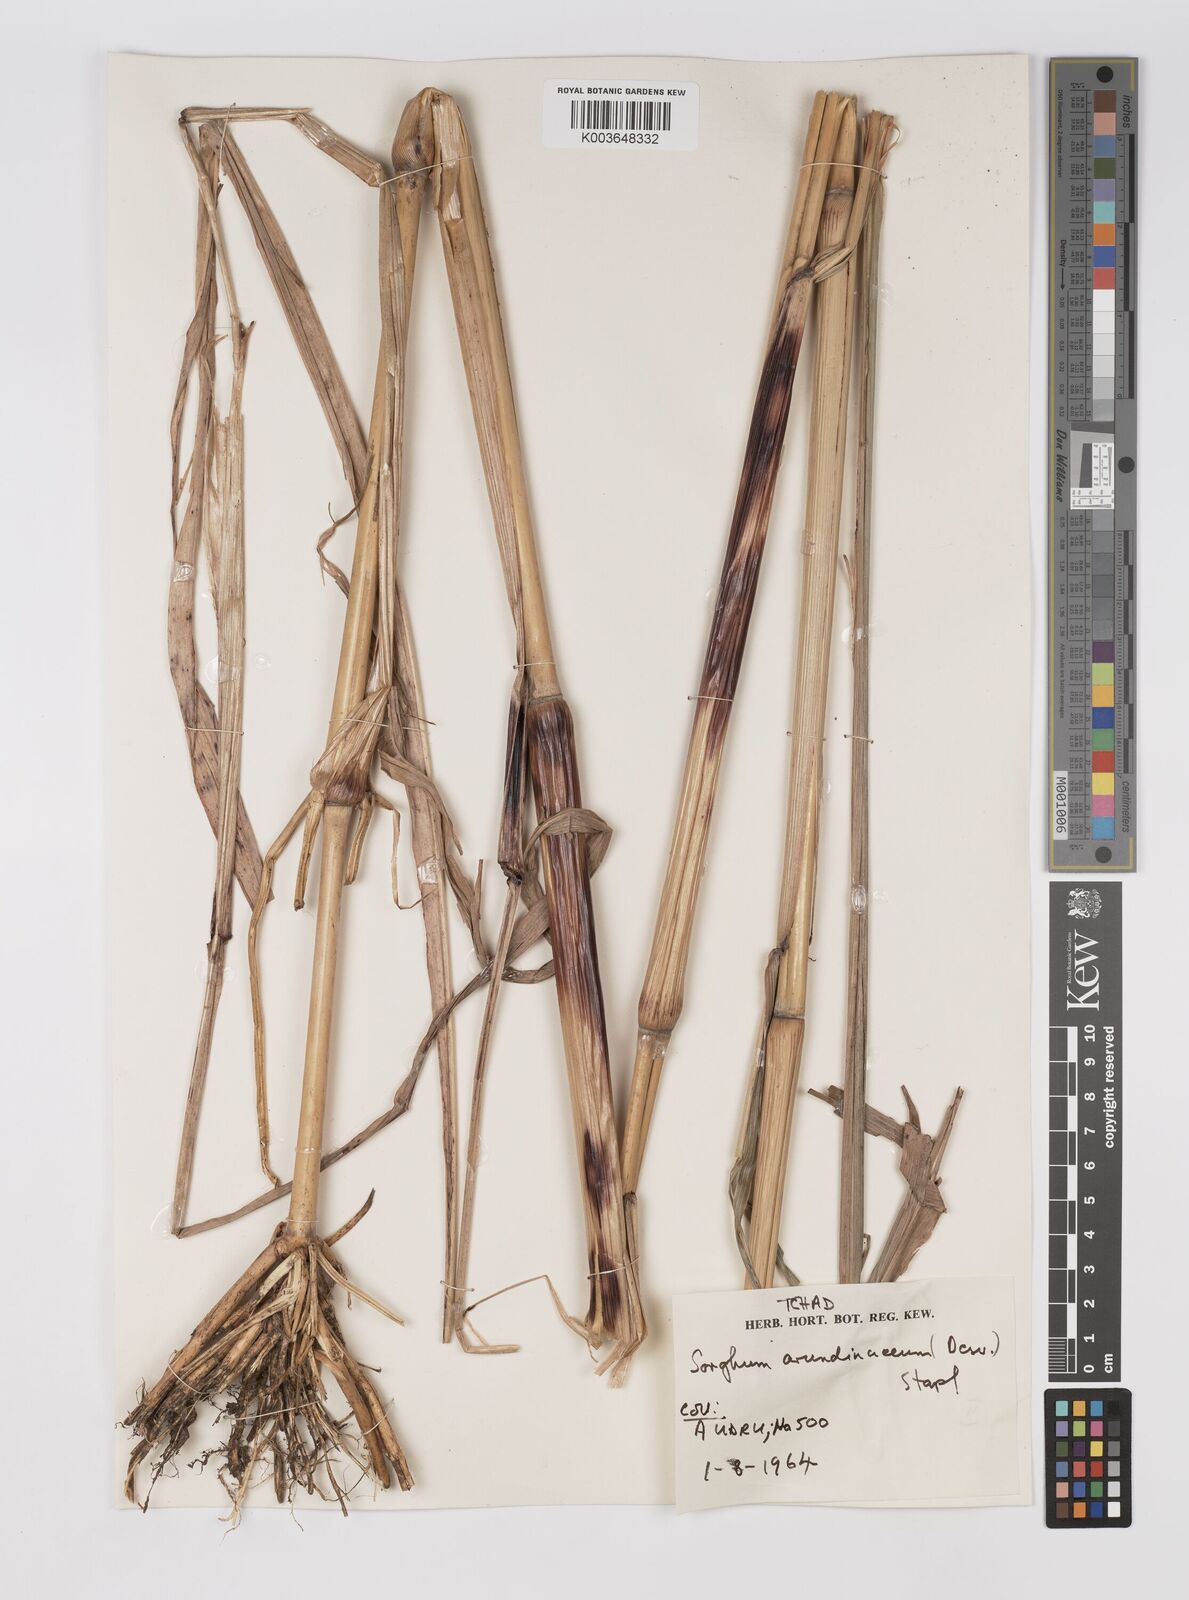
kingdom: Plantae
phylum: Tracheophyta
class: Liliopsida
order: Poales
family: Poaceae
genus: Sorghum
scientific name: Sorghum arundinaceum
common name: Sorghum
